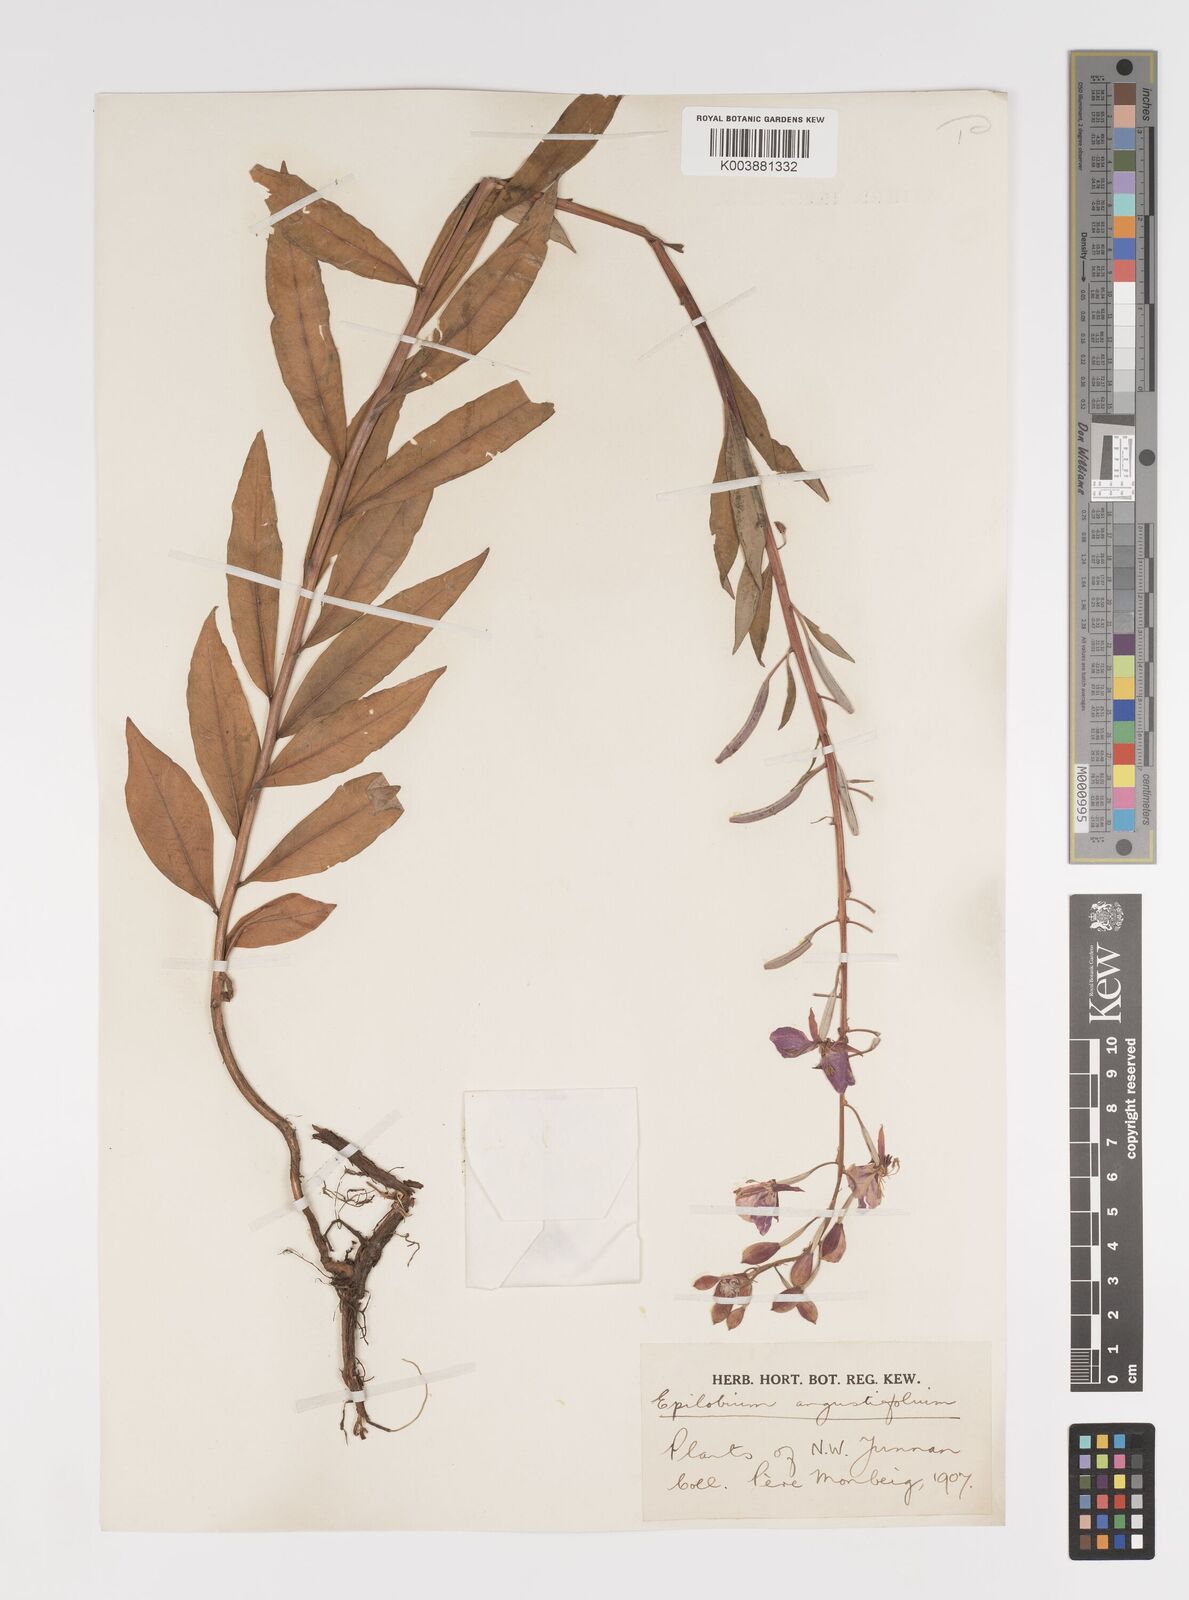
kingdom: Plantae
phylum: Tracheophyta
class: Magnoliopsida
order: Myrtales
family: Onagraceae
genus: Chamaenerion
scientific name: Chamaenerion angustifolium
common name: Fireweed
